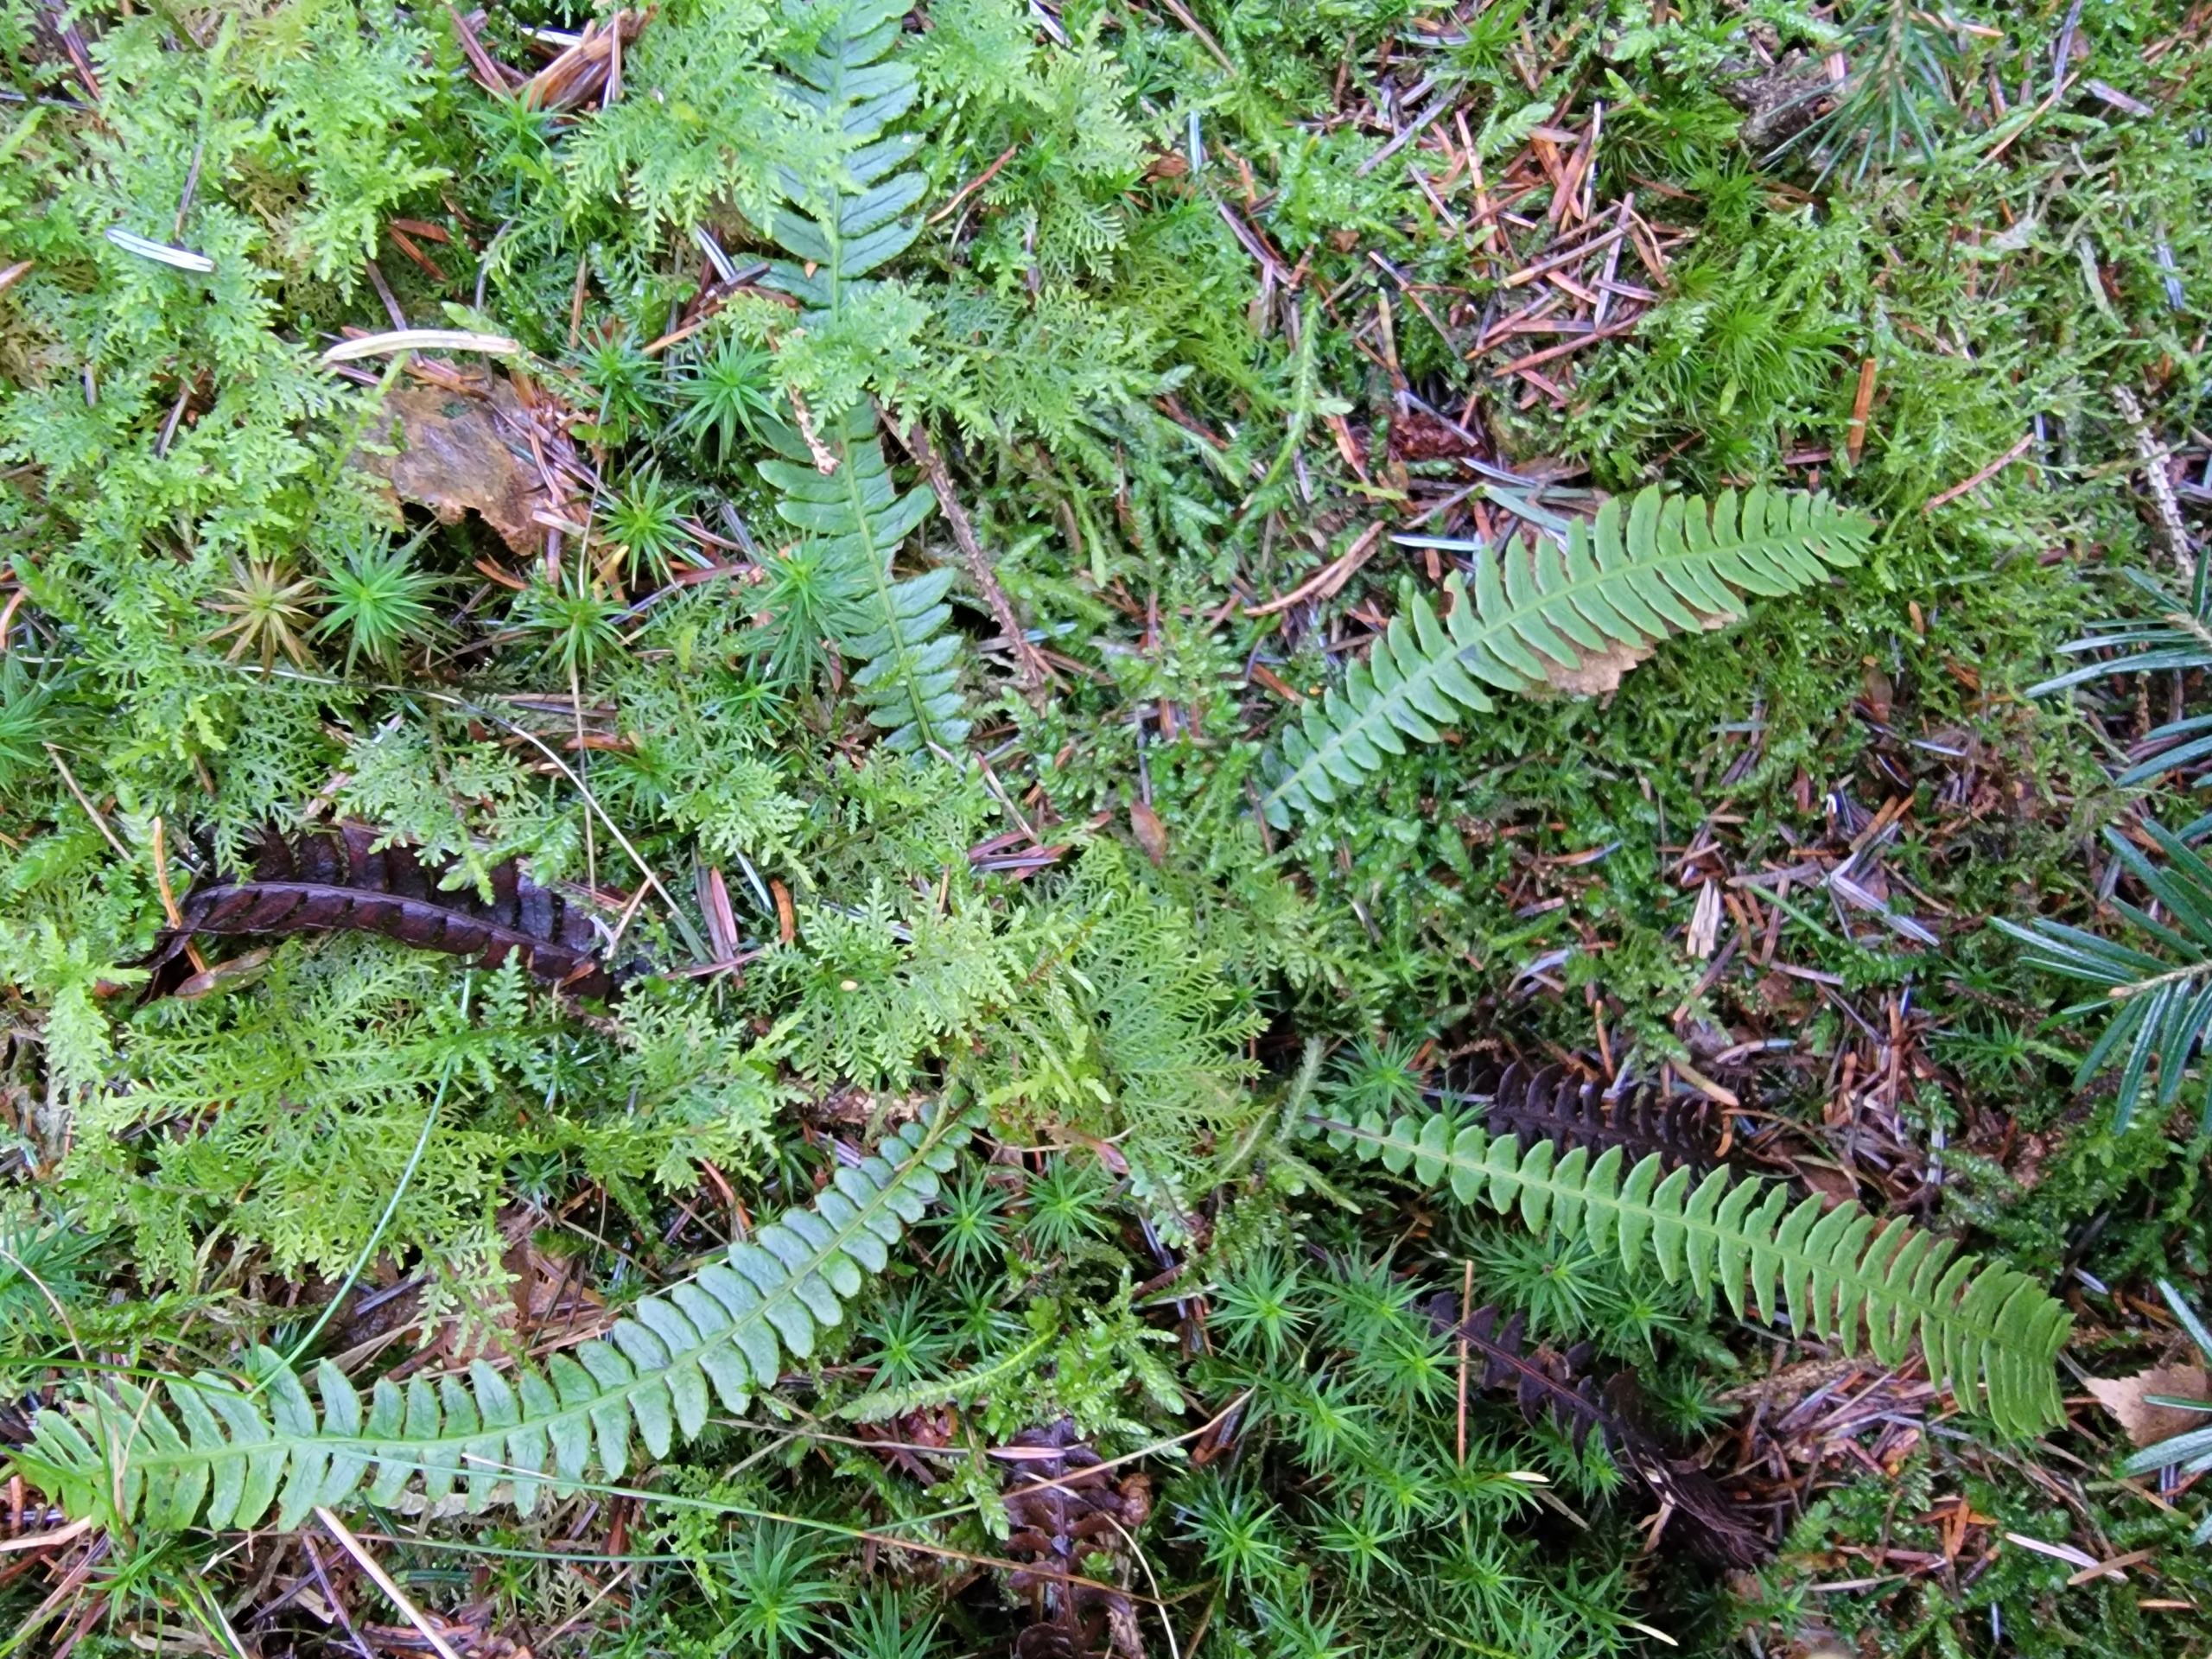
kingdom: Plantae
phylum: Tracheophyta
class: Polypodiopsida
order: Polypodiales
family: Blechnaceae
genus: Struthiopteris
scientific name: Struthiopteris spicant
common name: Kambregne
